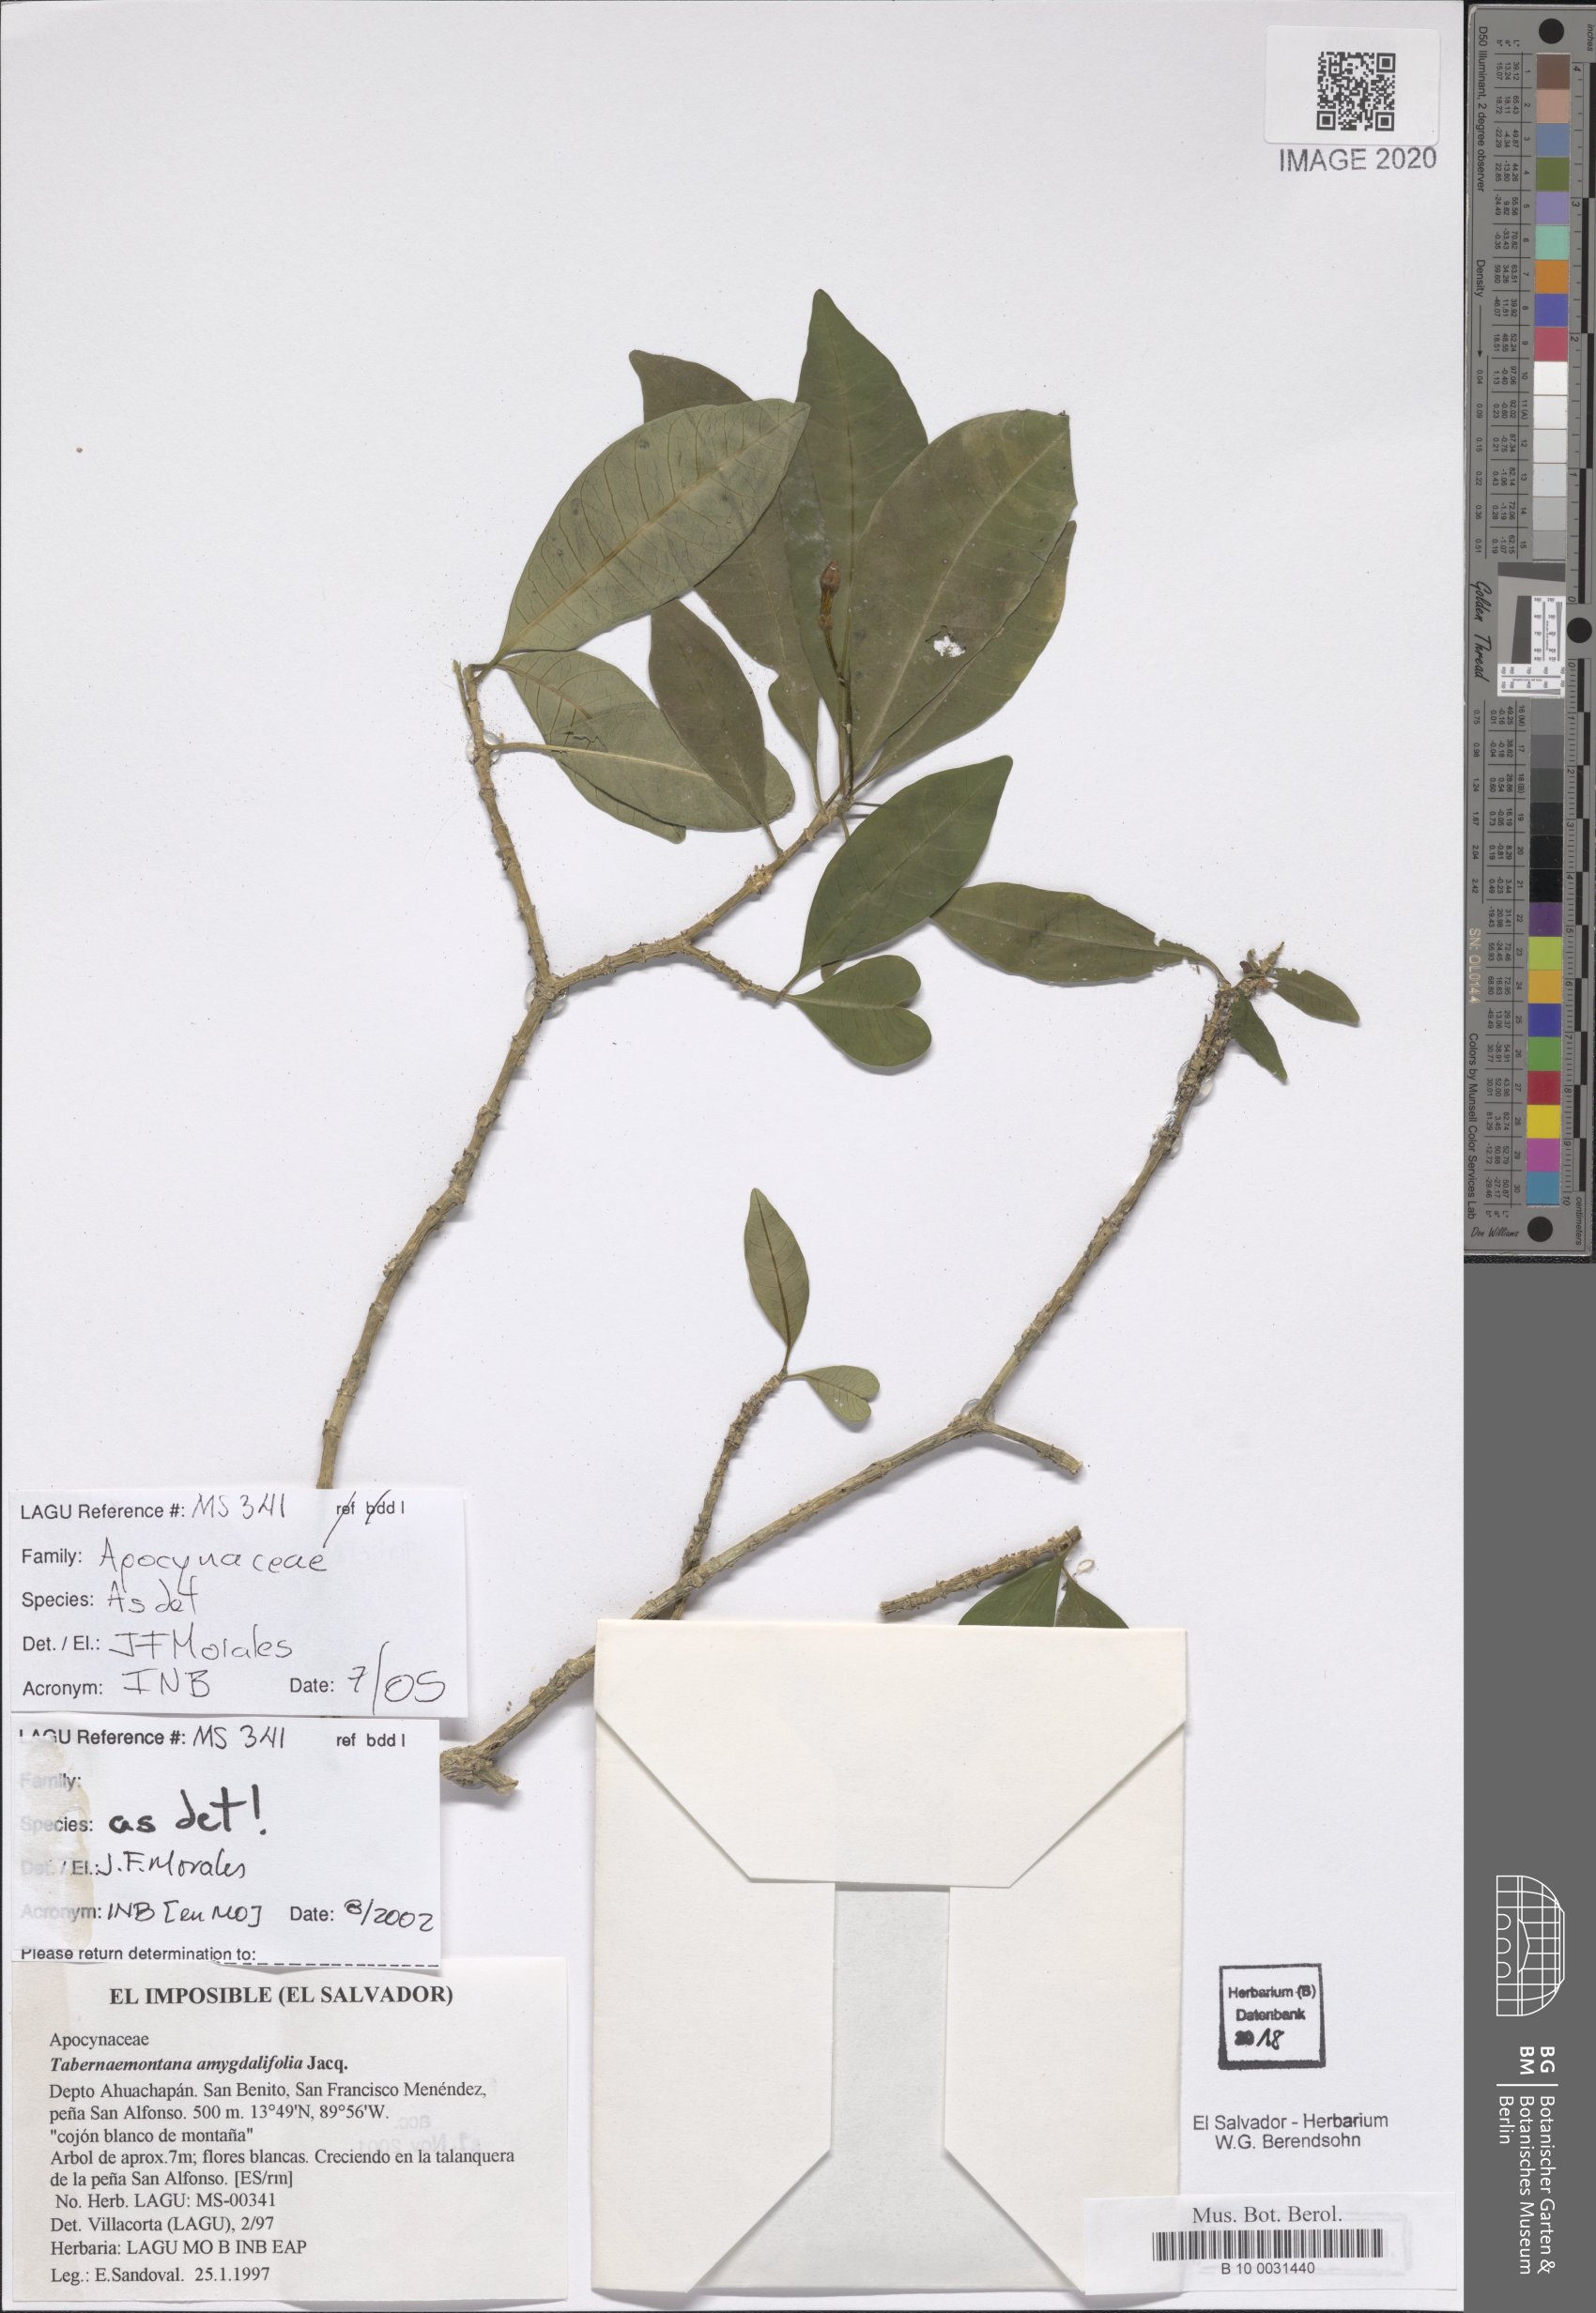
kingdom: Plantae
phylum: Tracheophyta
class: Magnoliopsida
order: Gentianales
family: Apocynaceae
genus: Tabernaemontana
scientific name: Tabernaemontana amygdalifolia
